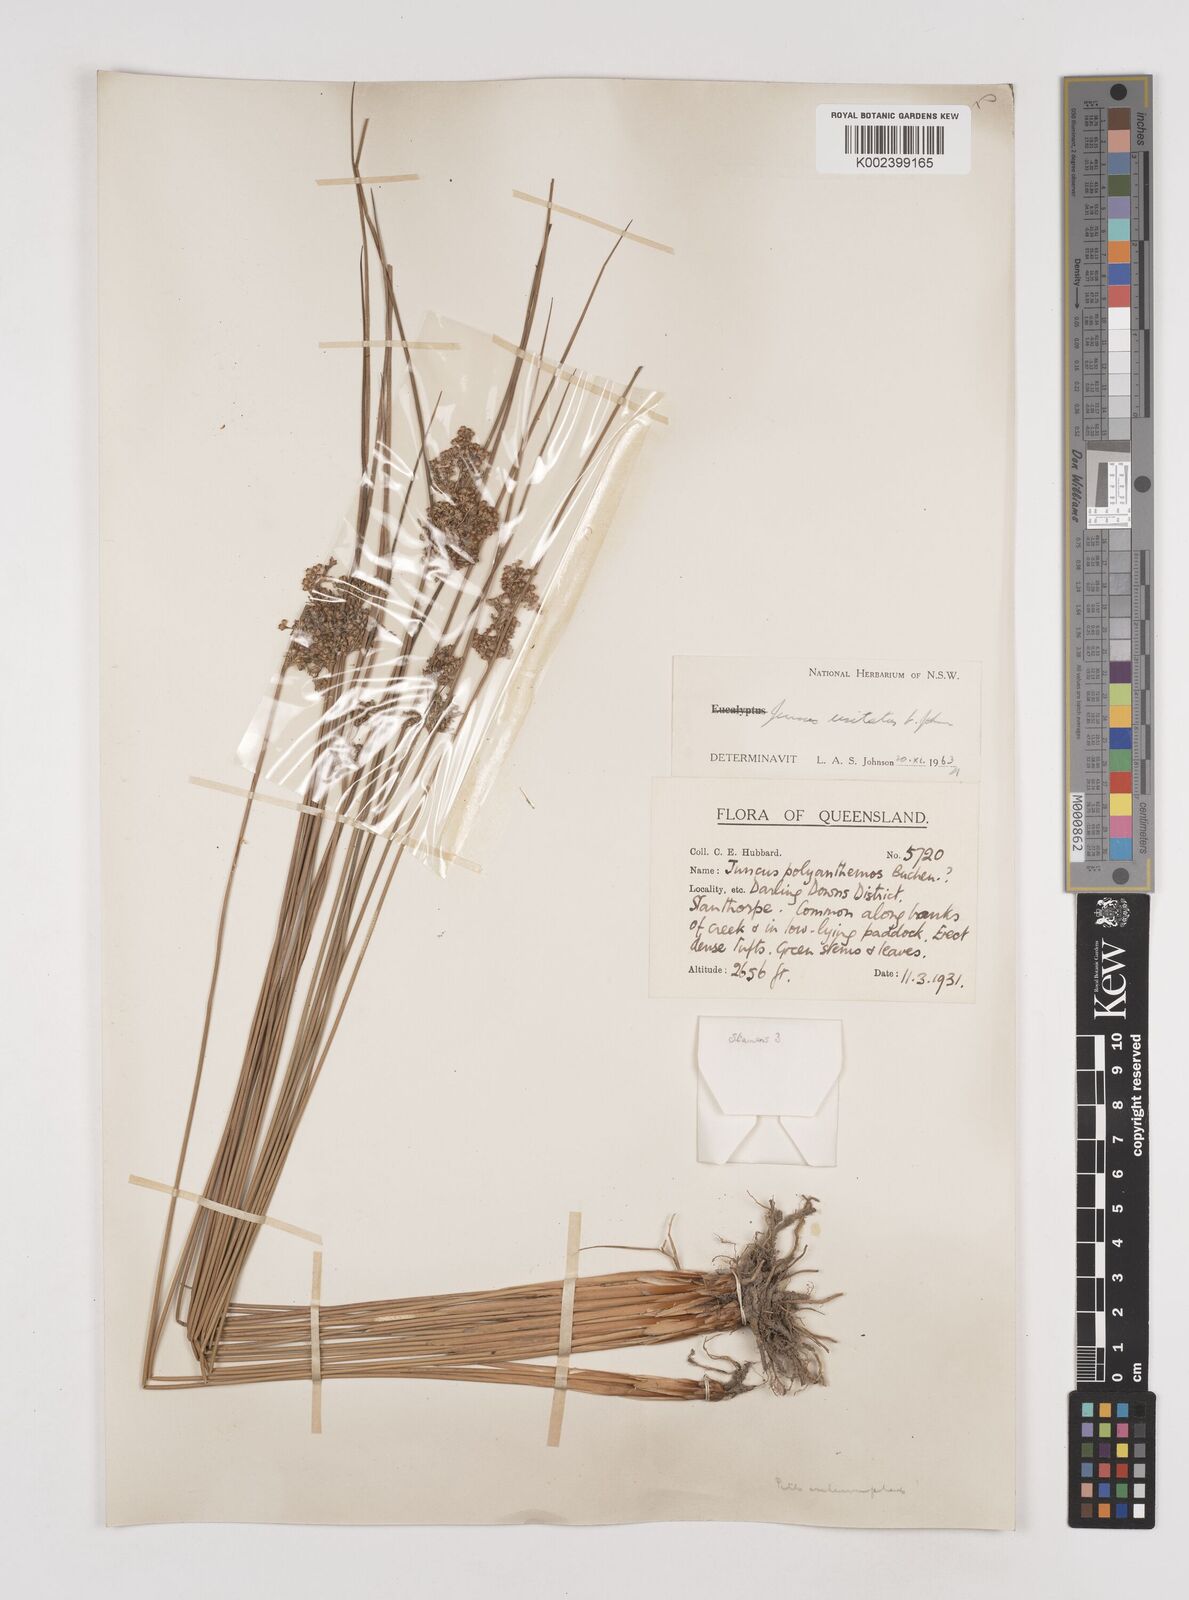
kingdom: Plantae
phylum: Tracheophyta
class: Liliopsida
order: Poales
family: Juncaceae
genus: Juncus
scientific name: Juncus usitatus
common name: Rush
